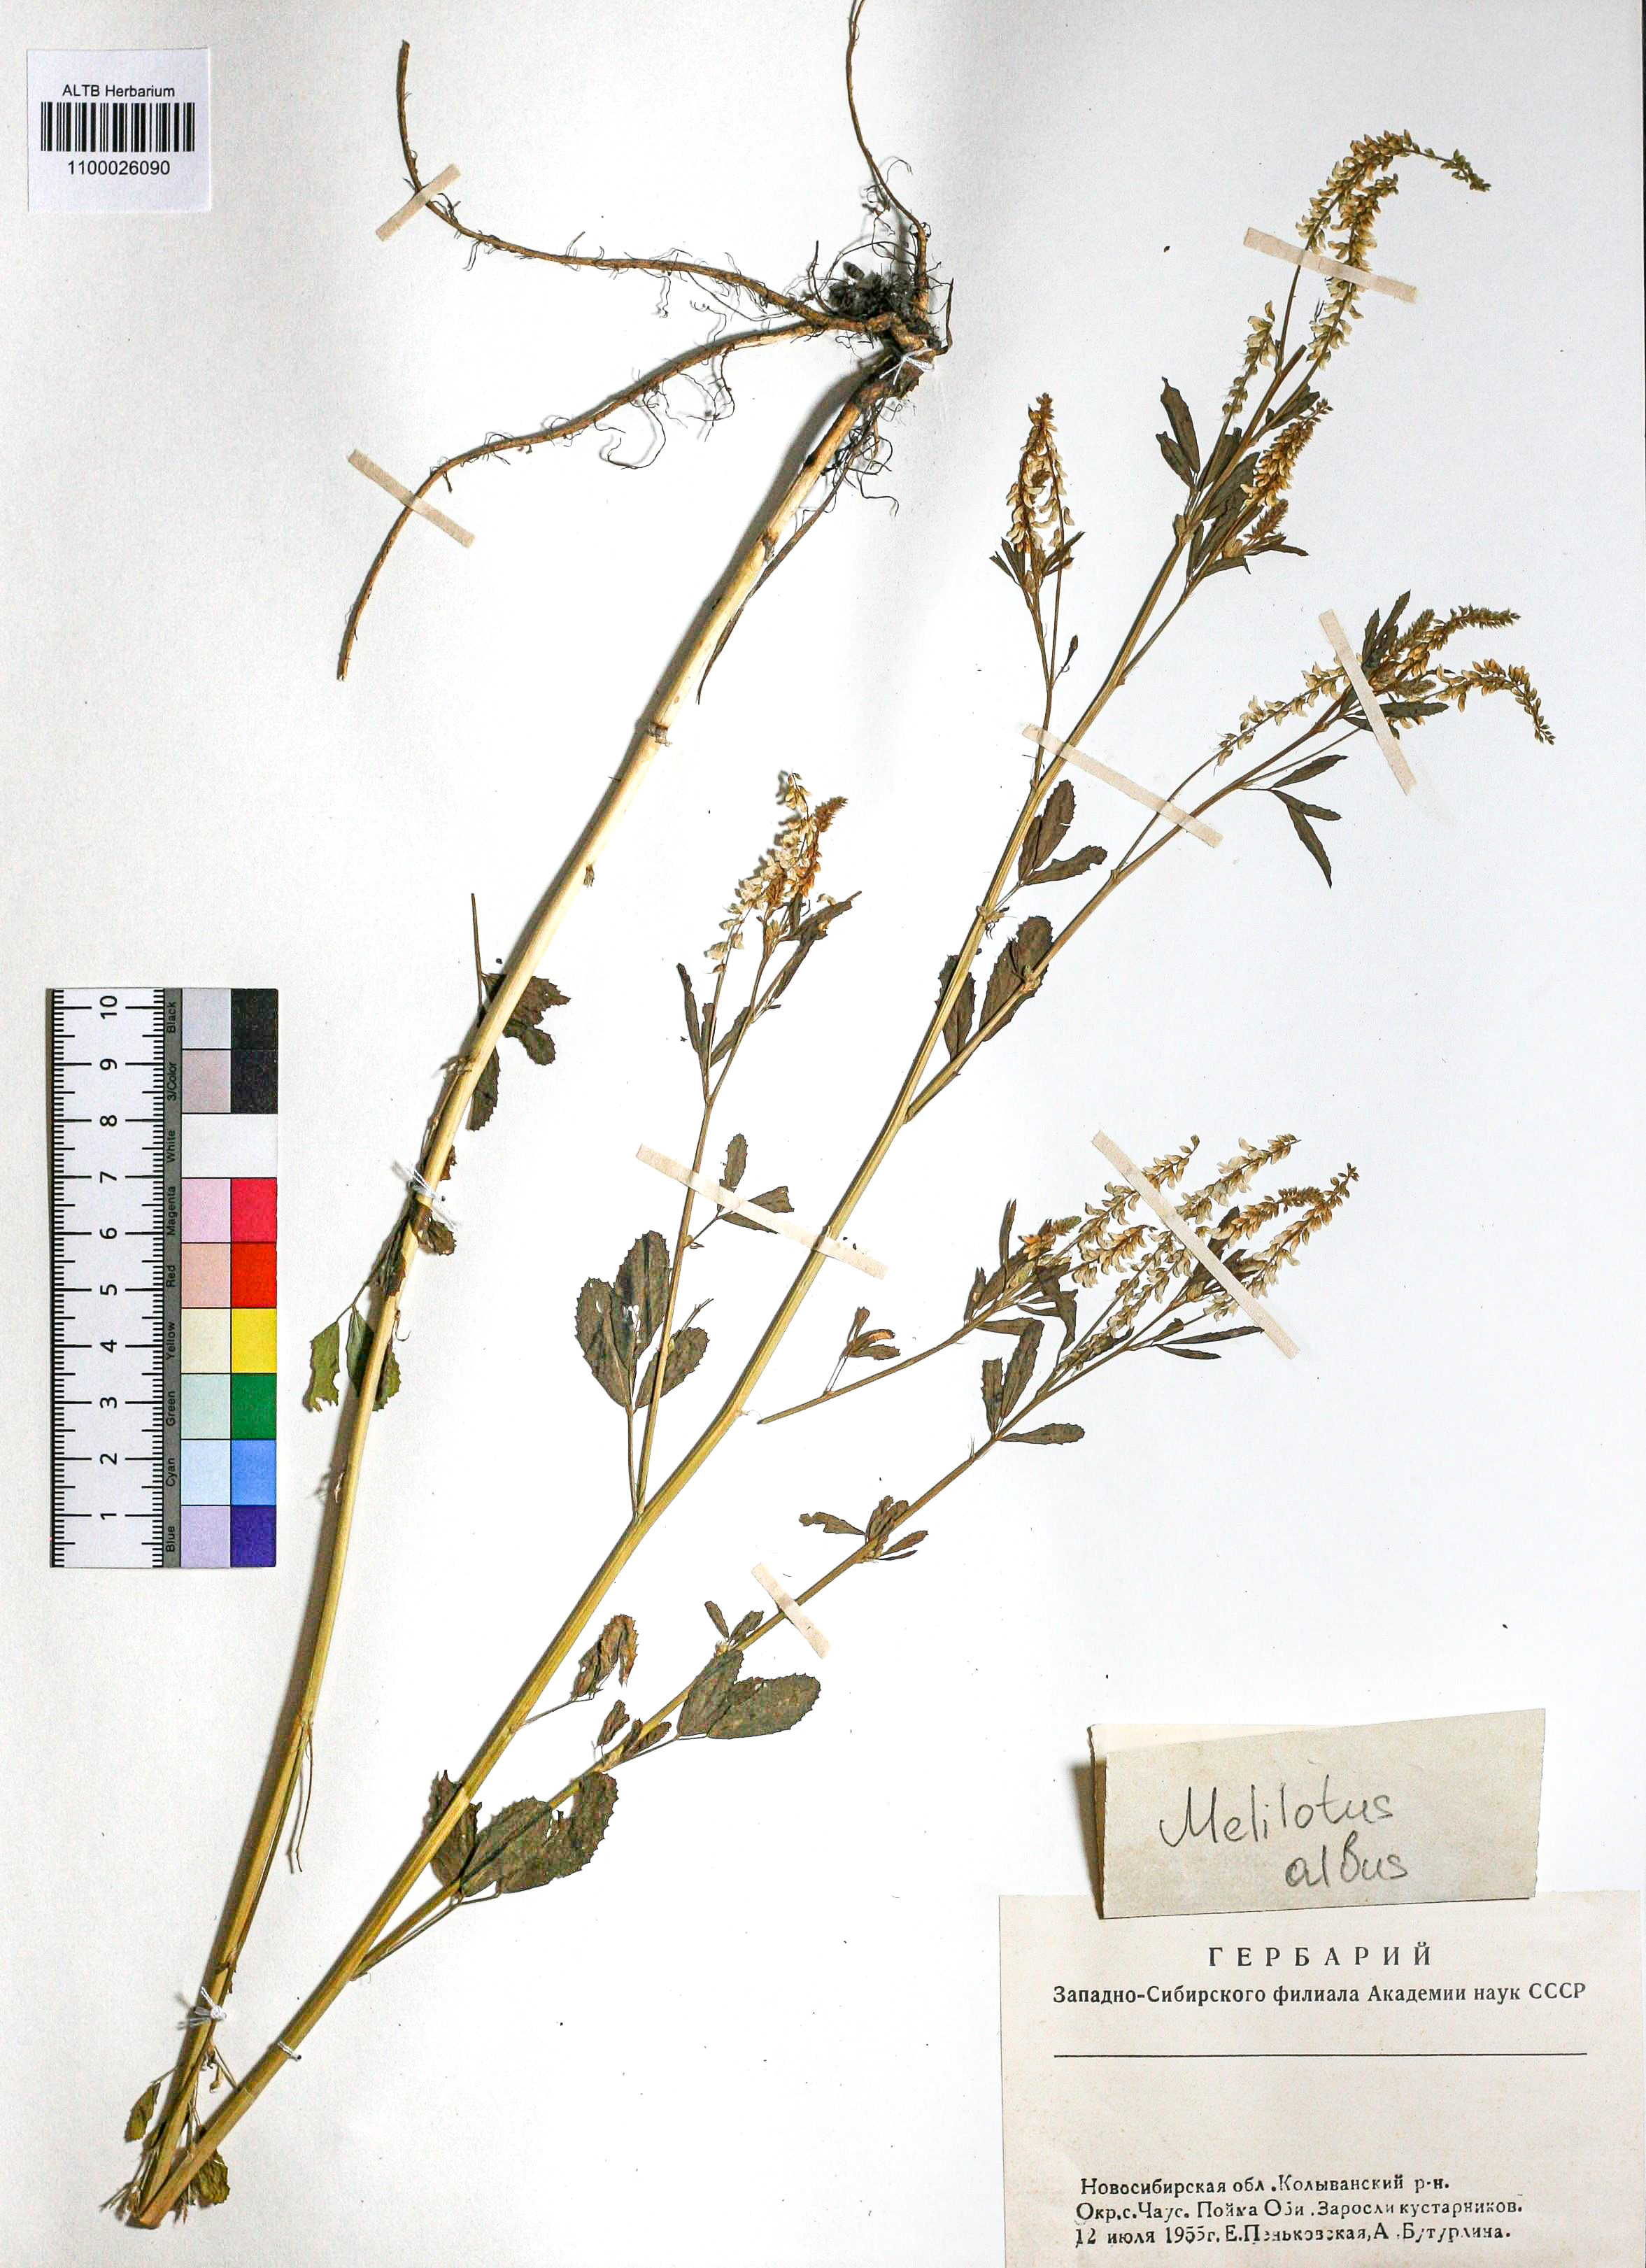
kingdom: Plantae
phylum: Tracheophyta
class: Magnoliopsida
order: Fabales
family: Fabaceae
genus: Melilotus
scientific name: Melilotus albus
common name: White melilot
